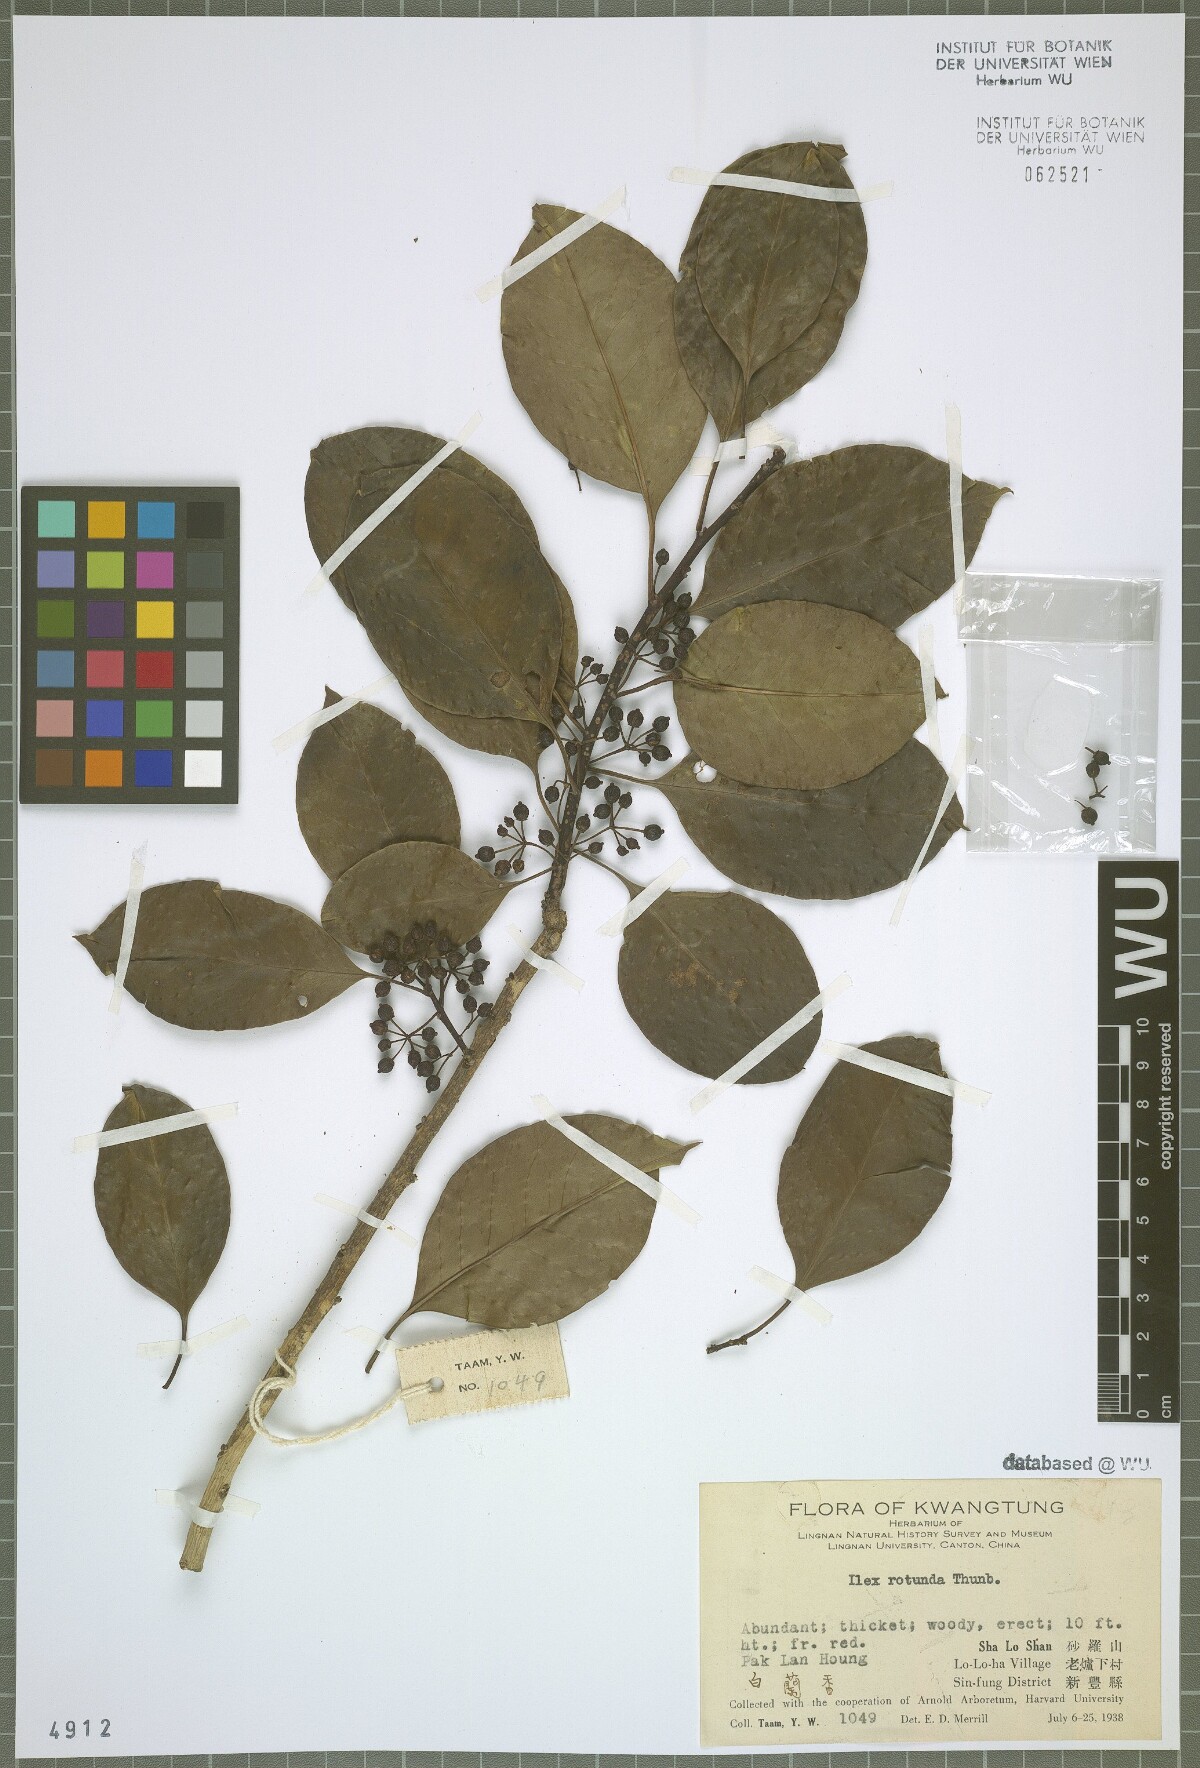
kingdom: Plantae
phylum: Tracheophyta
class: Magnoliopsida
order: Aquifoliales
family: Aquifoliaceae
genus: Ilex
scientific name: Ilex rotunda
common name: Kurogane holly
